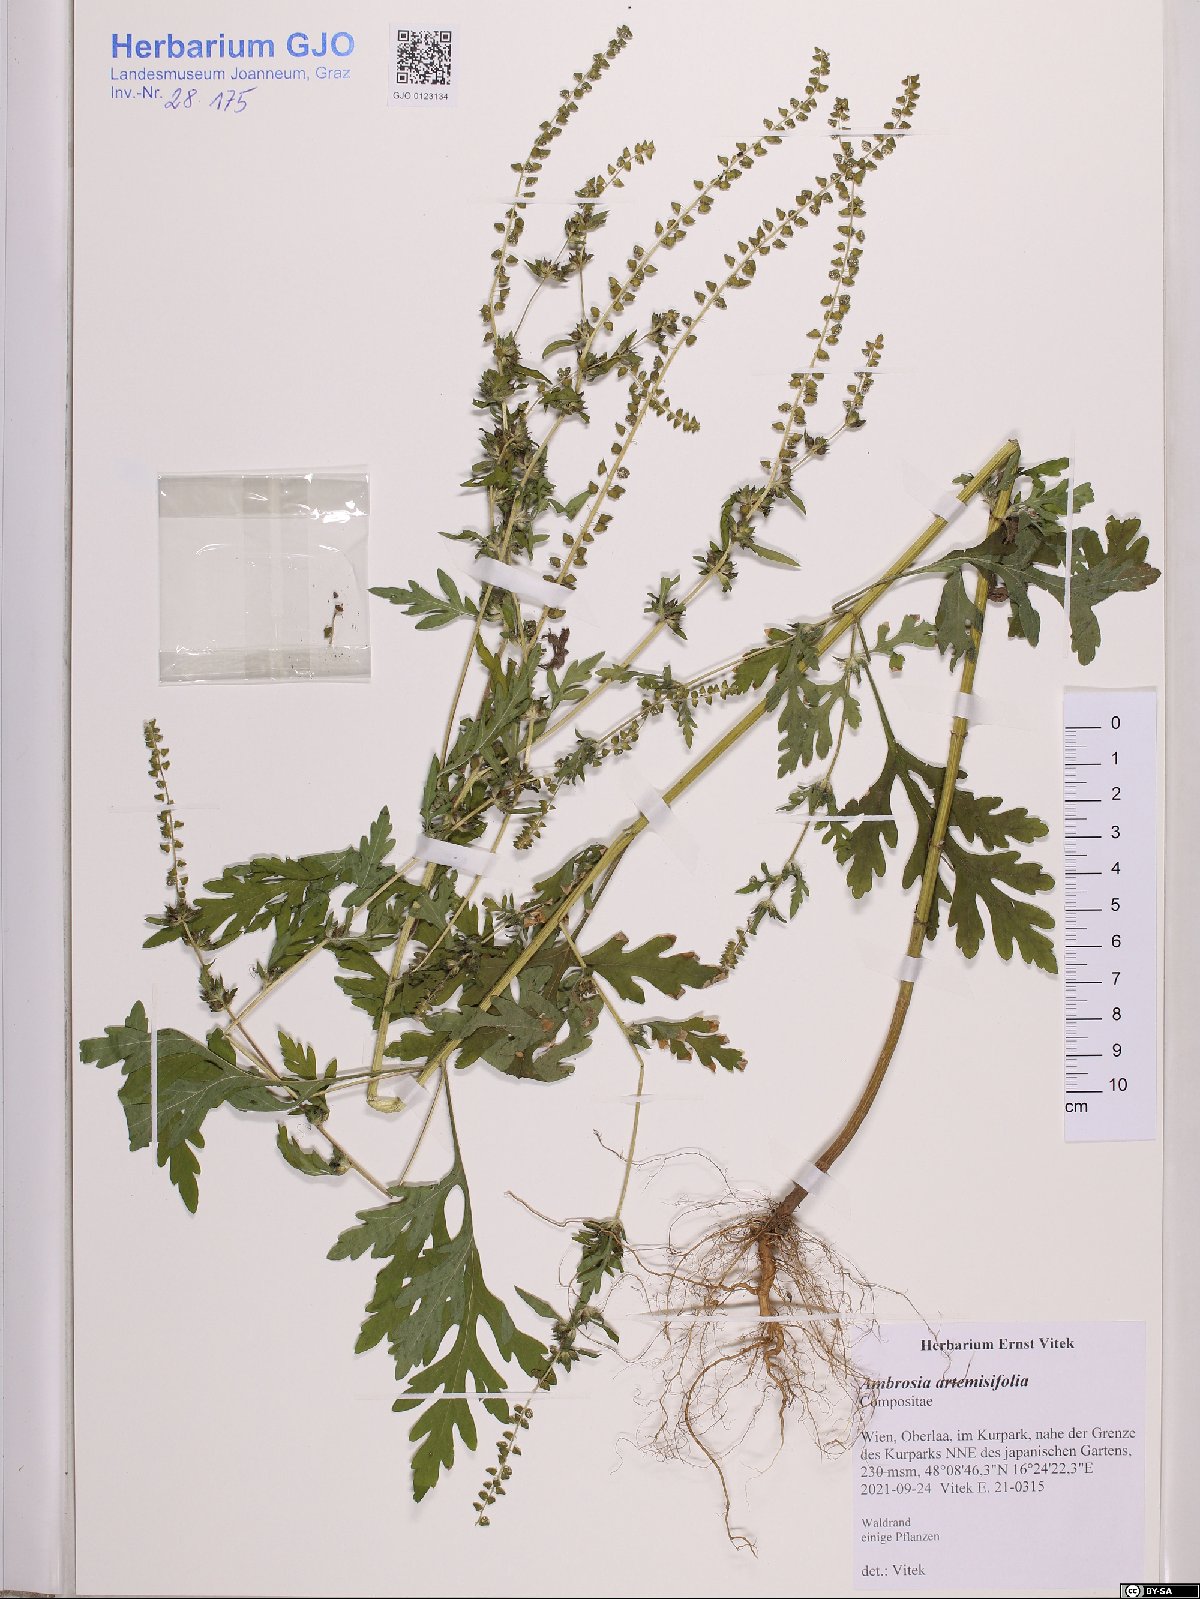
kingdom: Plantae
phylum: Tracheophyta
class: Magnoliopsida
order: Asterales
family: Asteraceae
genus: Ambrosia
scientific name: Ambrosia artemisiifolia
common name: Annual ragweed
